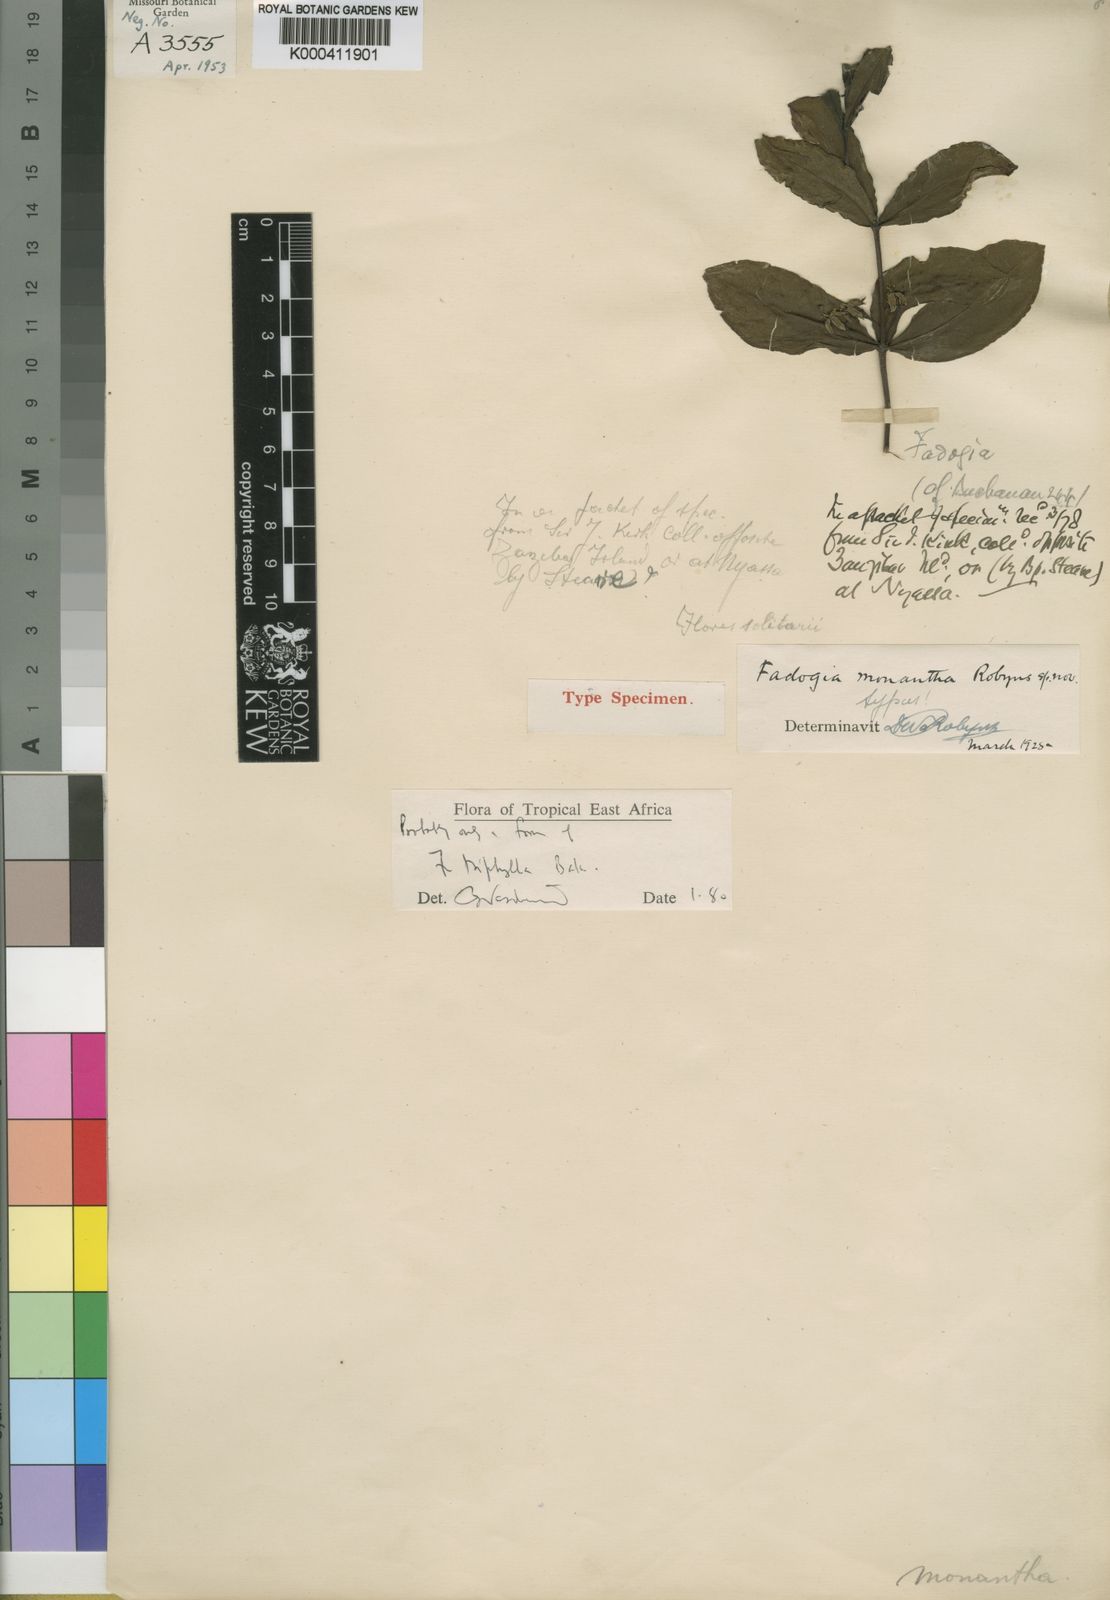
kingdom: Plantae
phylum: Tracheophyta
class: Magnoliopsida
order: Gentianales
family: Rubiaceae
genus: Fadogia
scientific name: Fadogia
